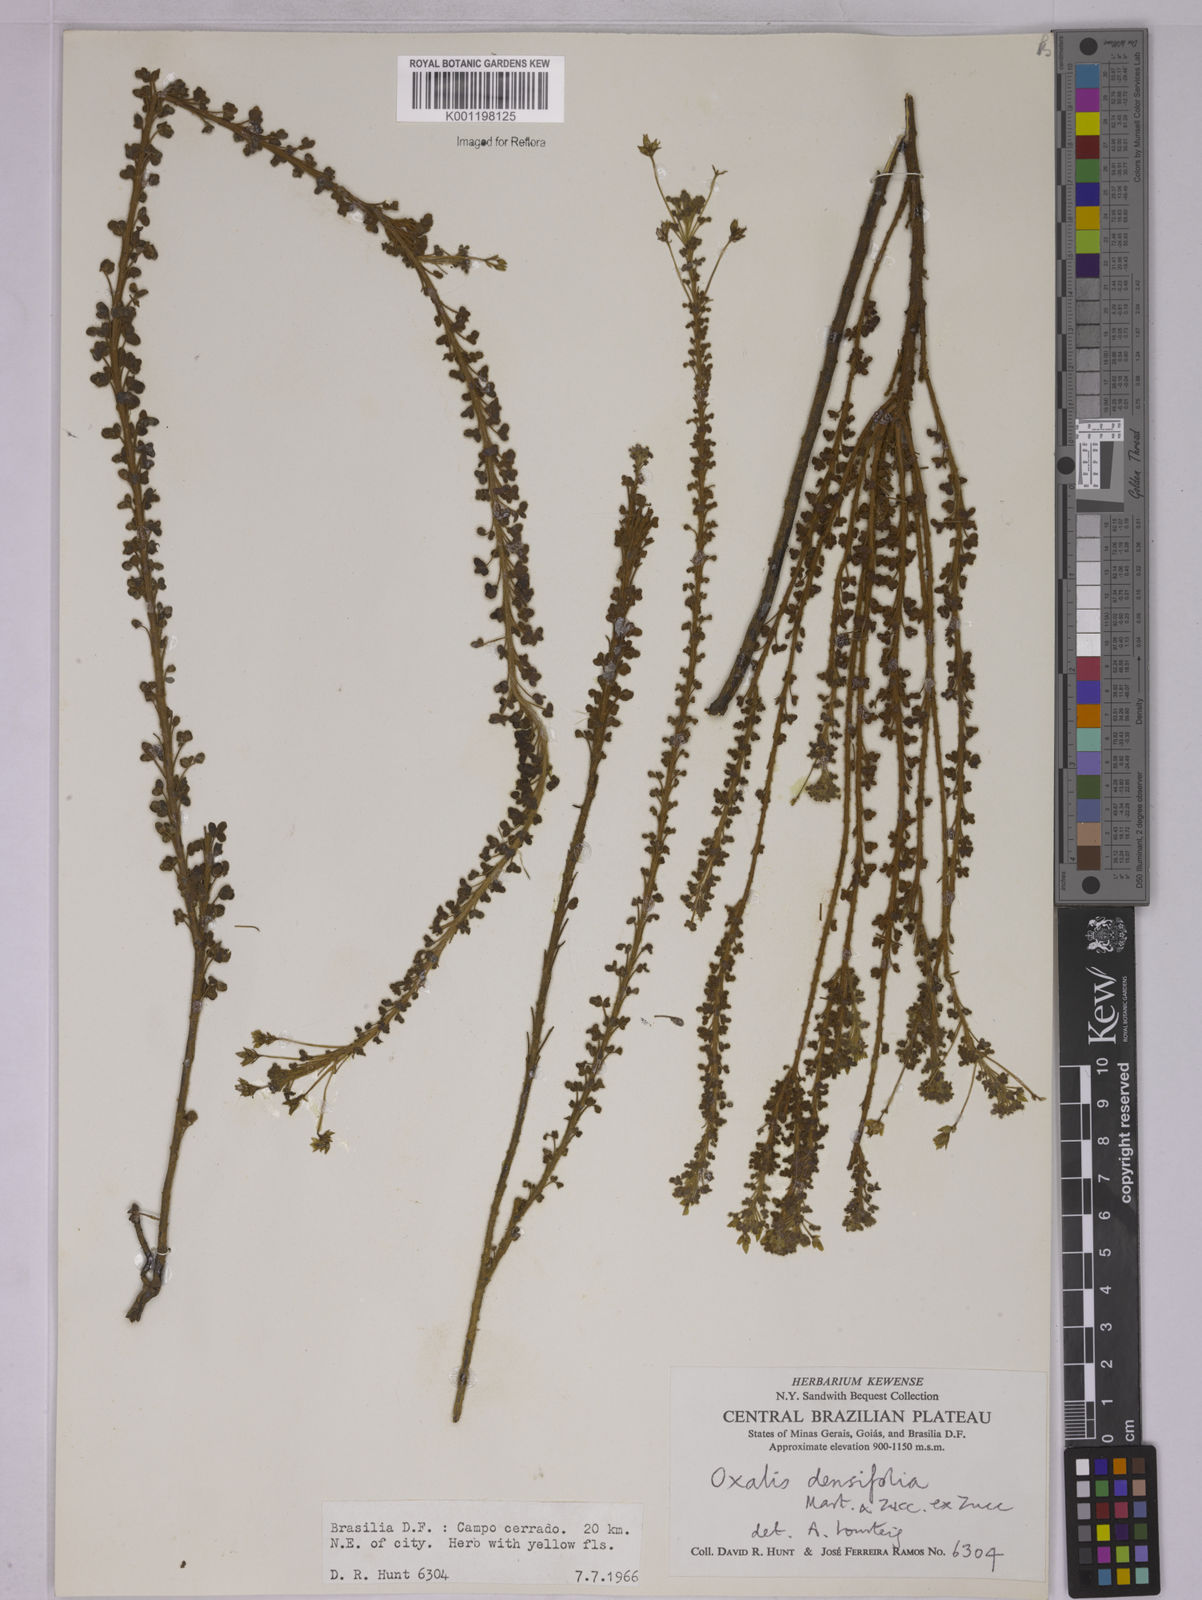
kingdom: Plantae
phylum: Tracheophyta
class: Magnoliopsida
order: Oxalidales
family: Oxalidaceae
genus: Oxalis
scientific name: Oxalis densifolia
